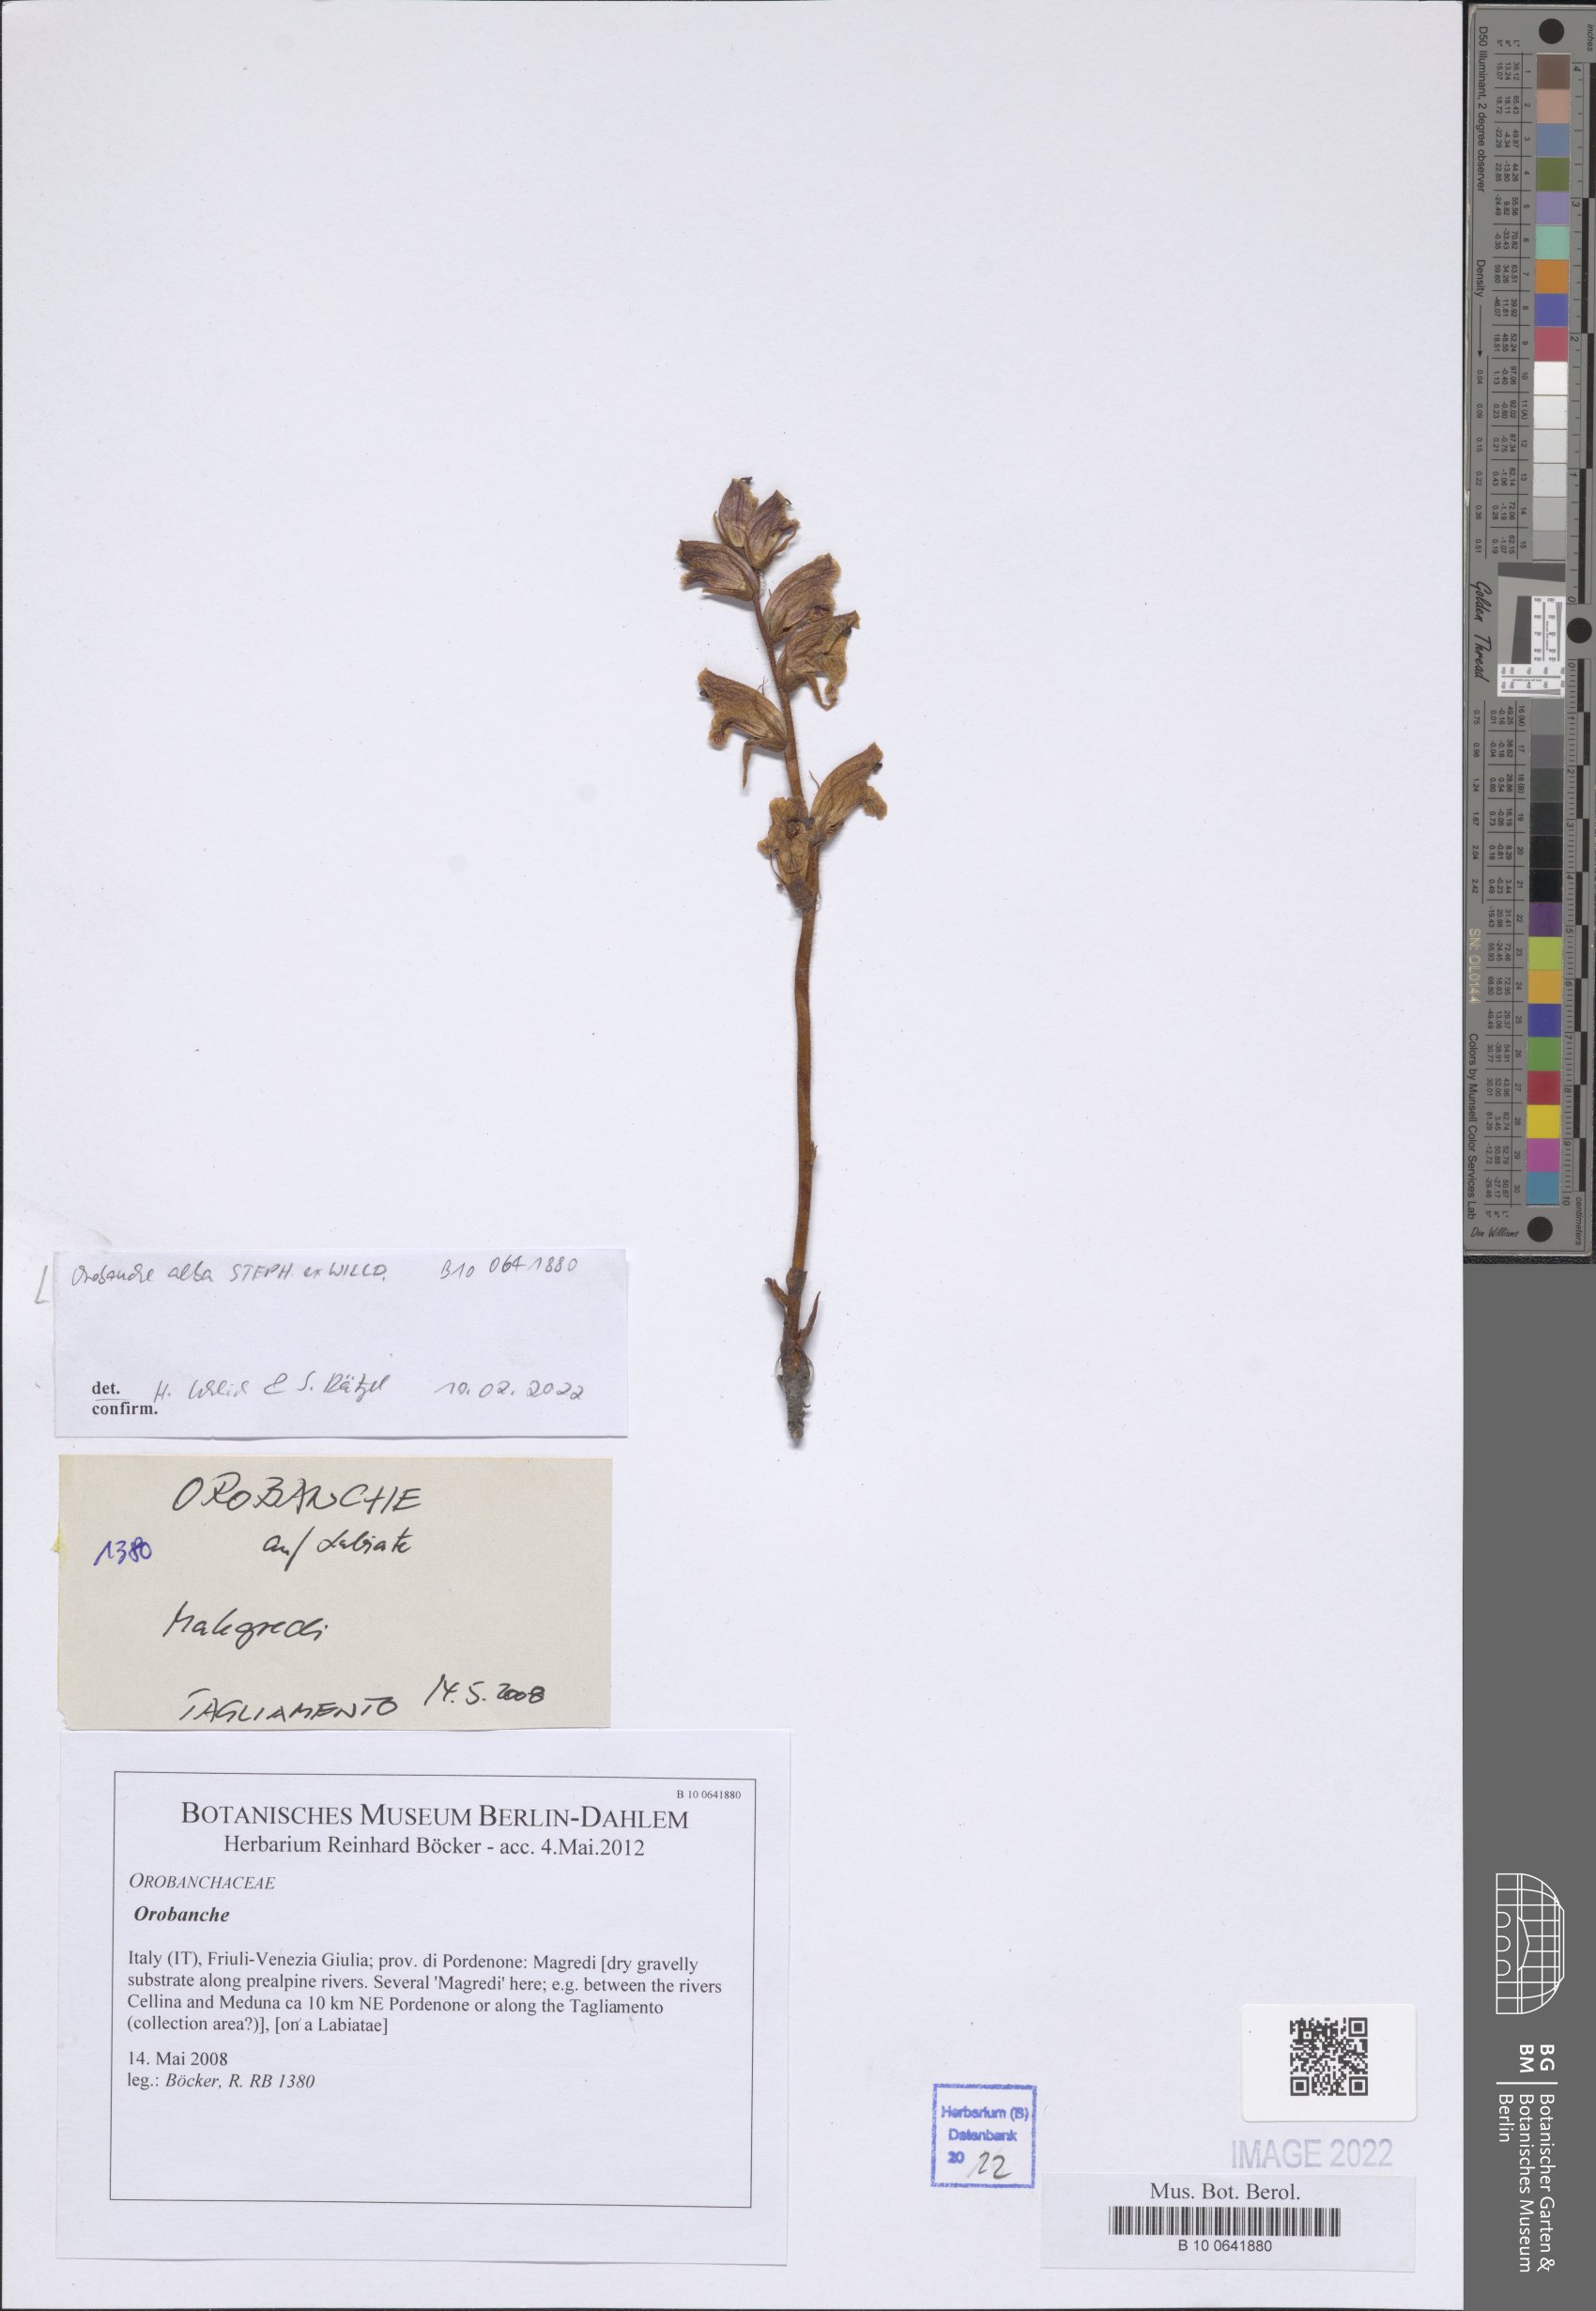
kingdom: Plantae
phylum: Tracheophyta
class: Magnoliopsida
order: Lamiales
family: Orobanchaceae
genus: Orobanche
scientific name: Orobanche alba
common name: Thyme broomrape
